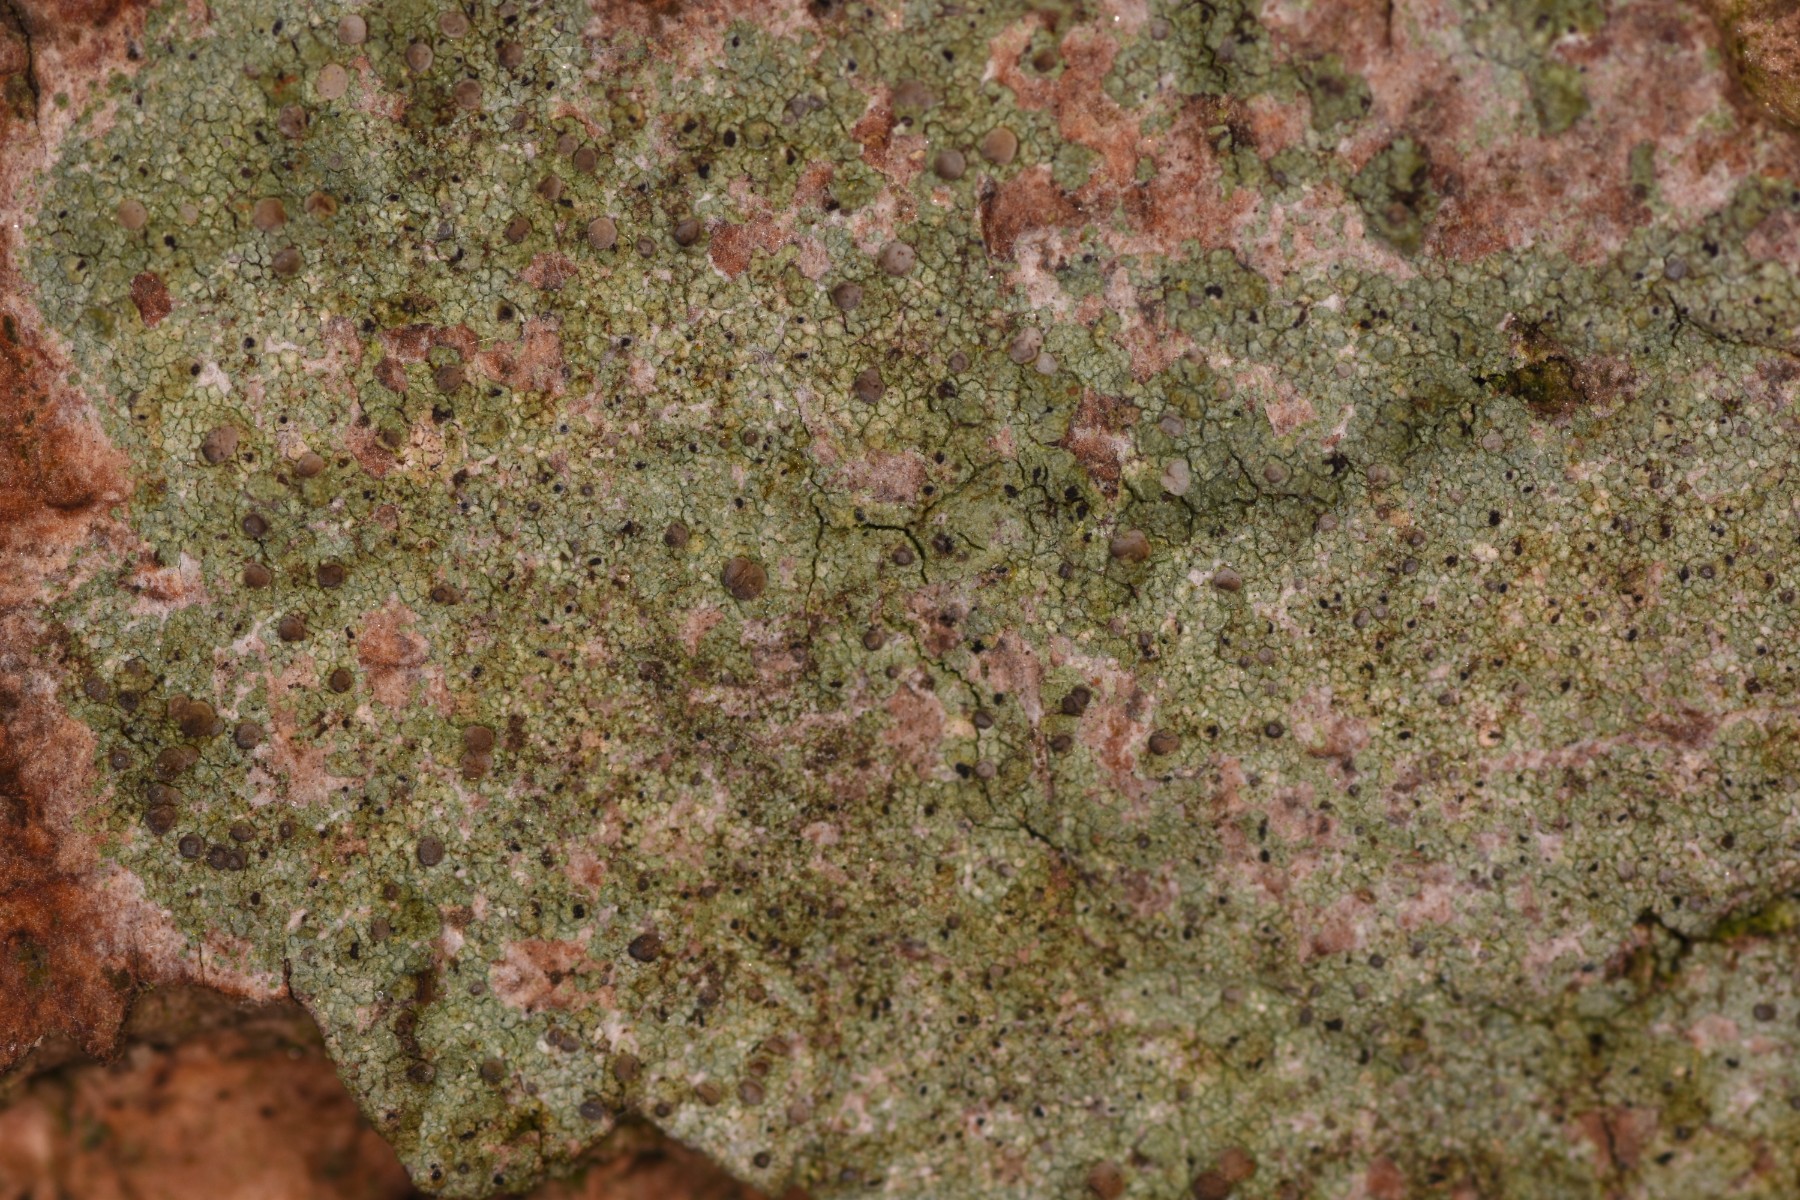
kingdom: Fungi
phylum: Ascomycota
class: Lecanoromycetes
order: Lecanorales
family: Ramalinaceae
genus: Cliostomum
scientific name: Cliostomum griffithii
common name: trefarvet tensporelav
